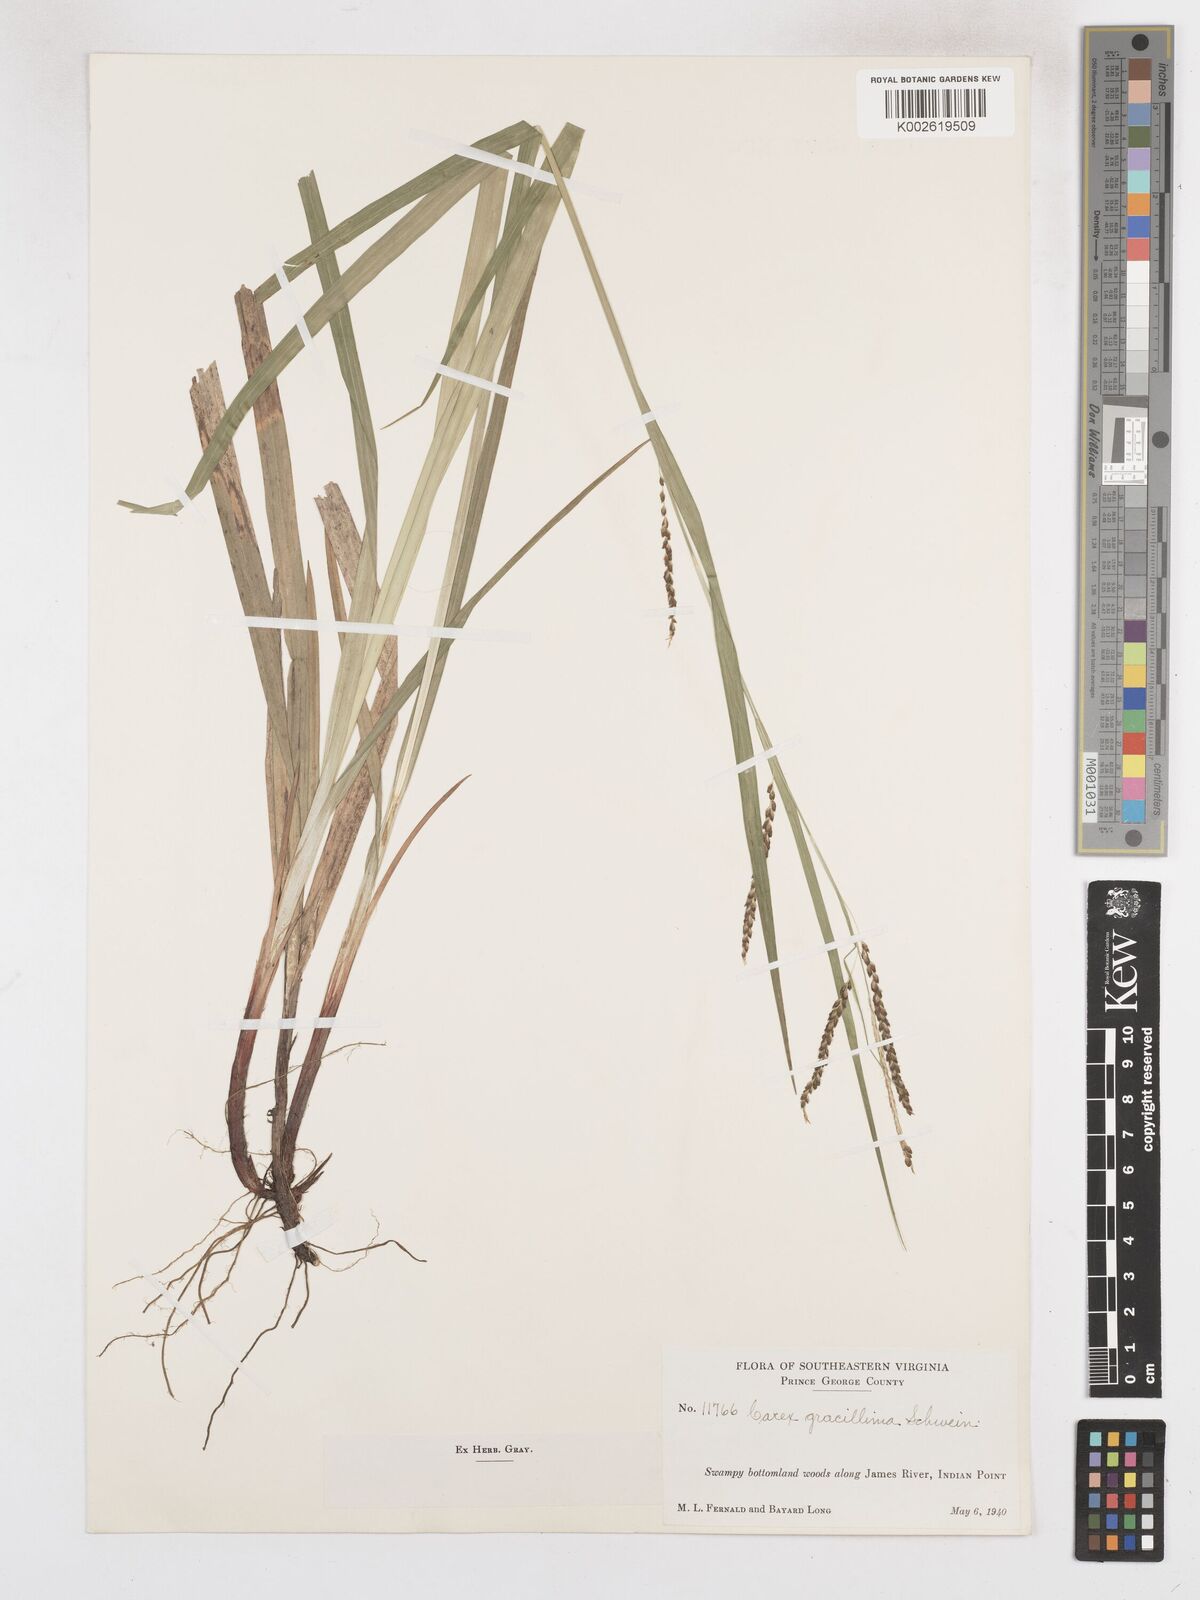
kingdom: Plantae
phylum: Tracheophyta
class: Liliopsida
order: Poales
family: Cyperaceae
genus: Carex
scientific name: Carex gracillima
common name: Graceful sedge
